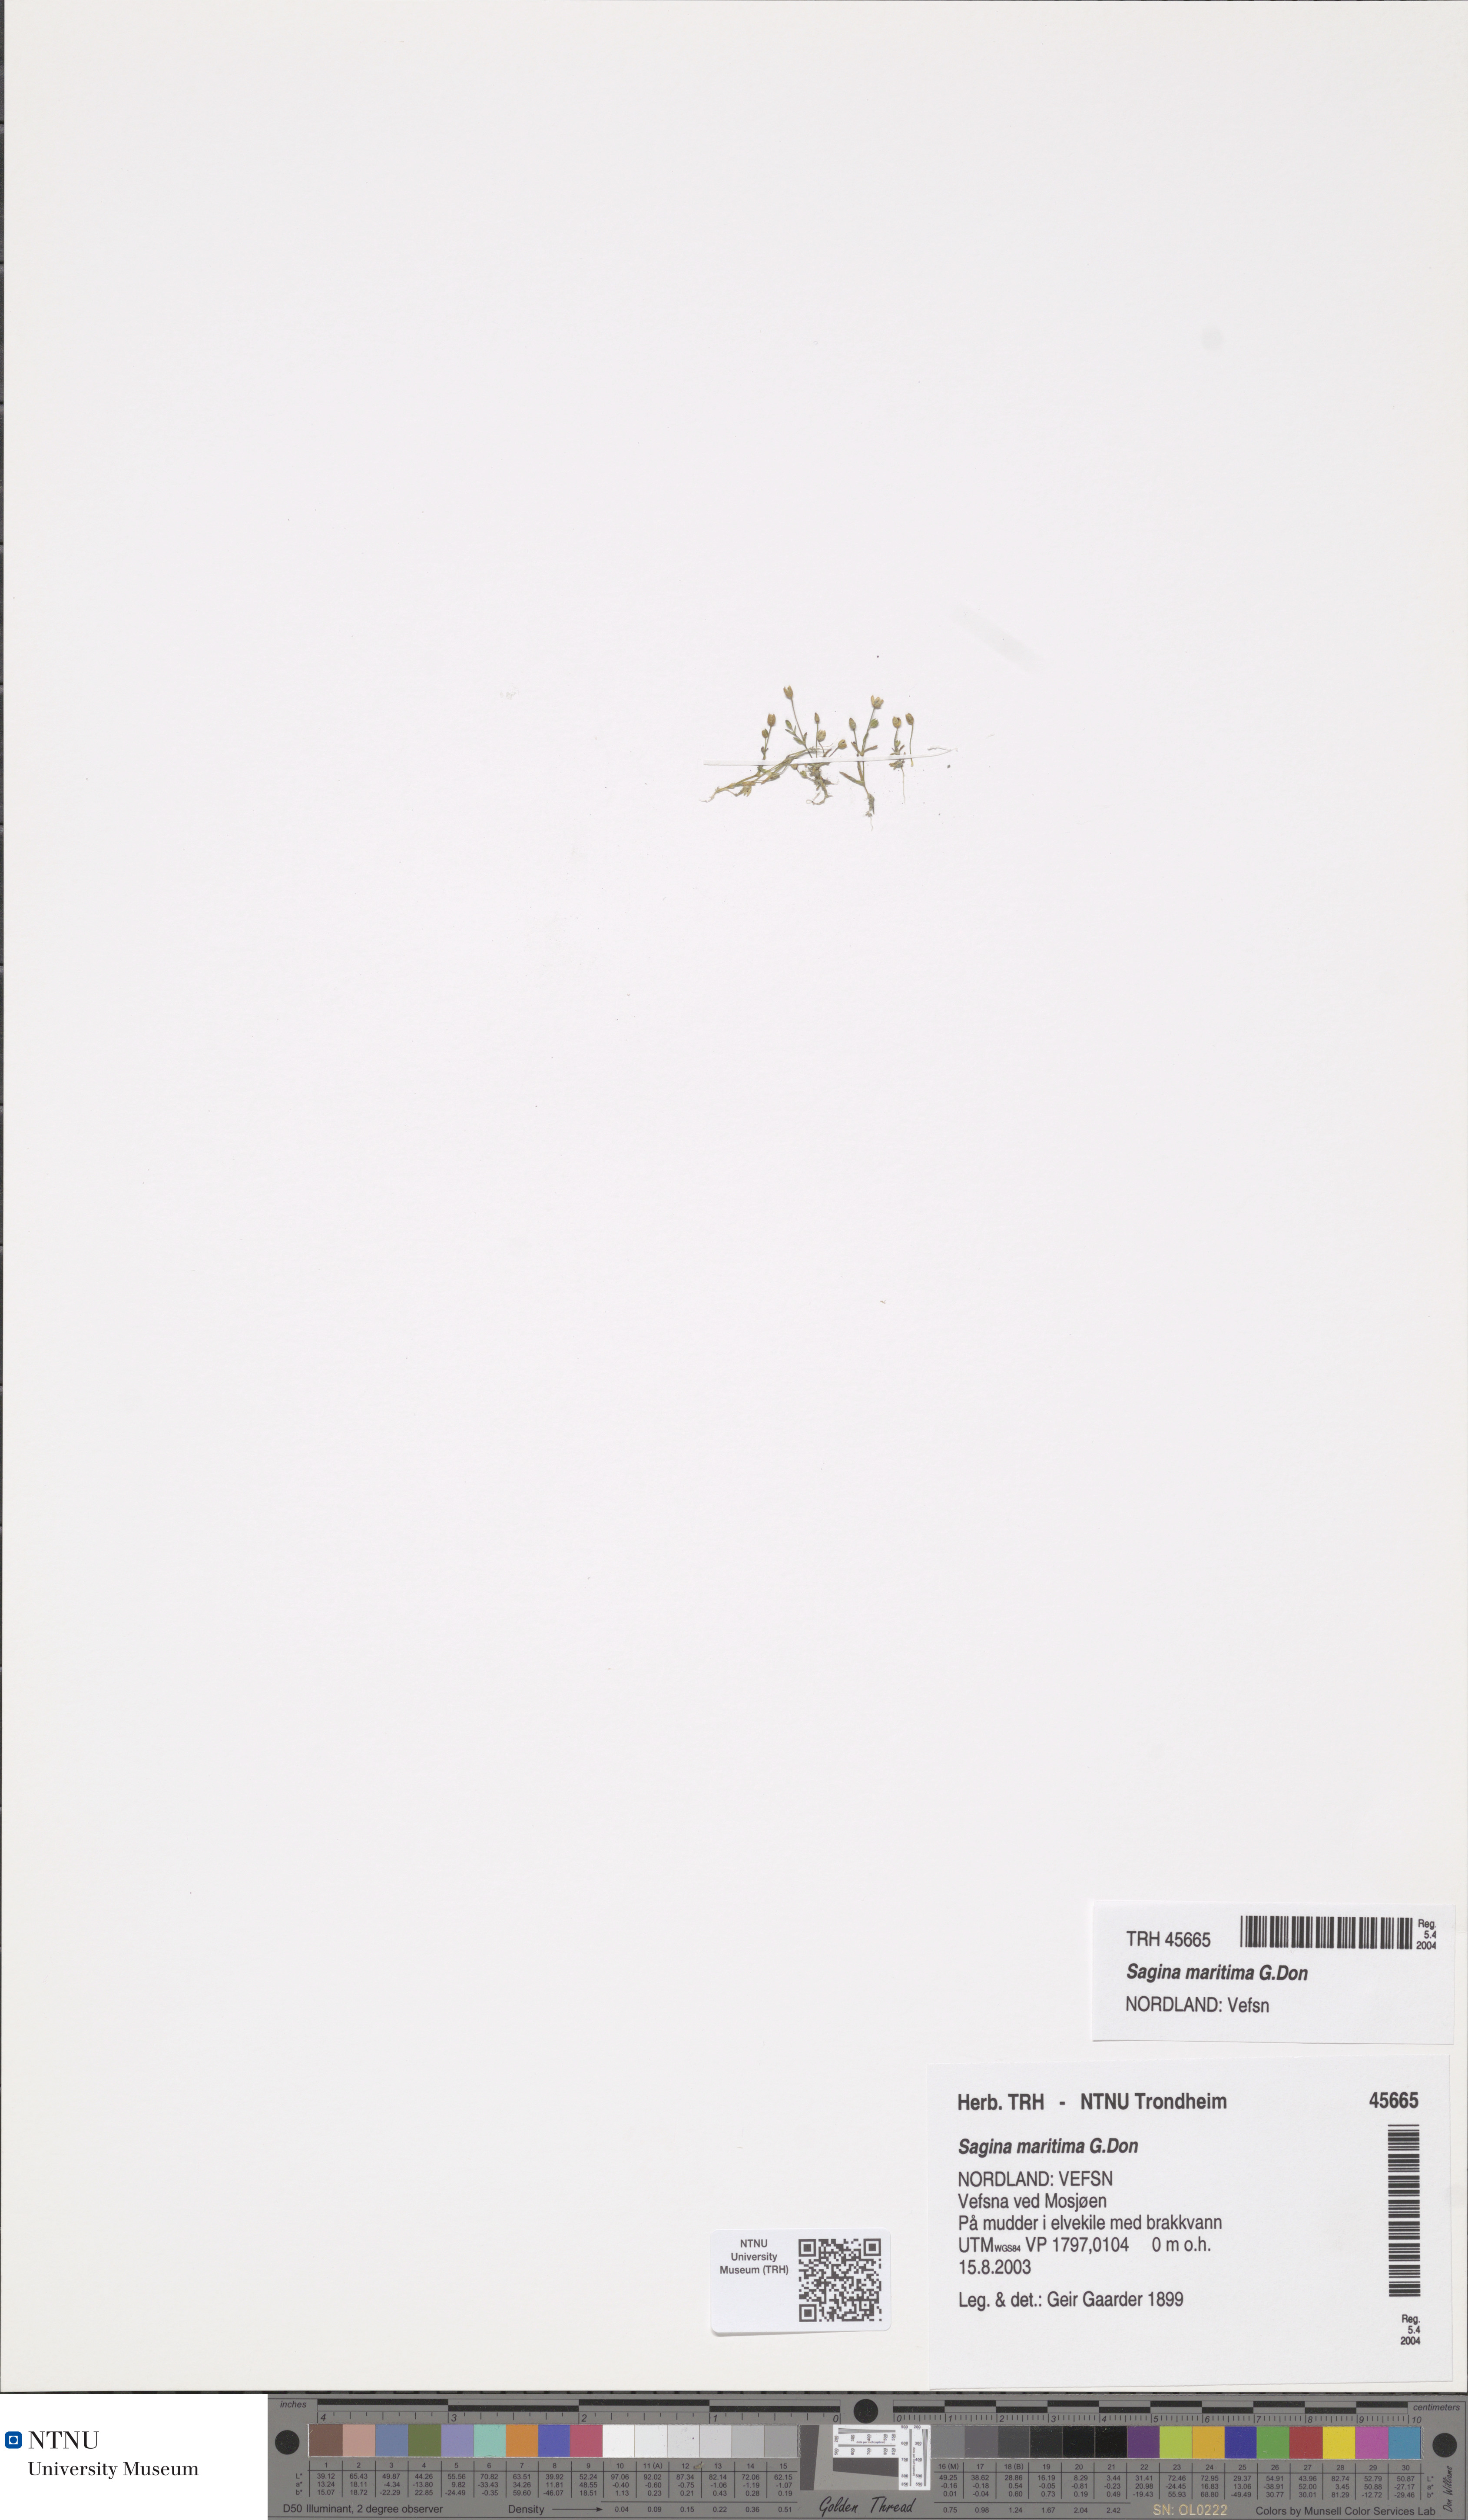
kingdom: Plantae
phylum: Tracheophyta
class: Magnoliopsida
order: Caryophyllales
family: Caryophyllaceae
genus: Sagina
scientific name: Sagina maritima
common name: Sea pearlwort
